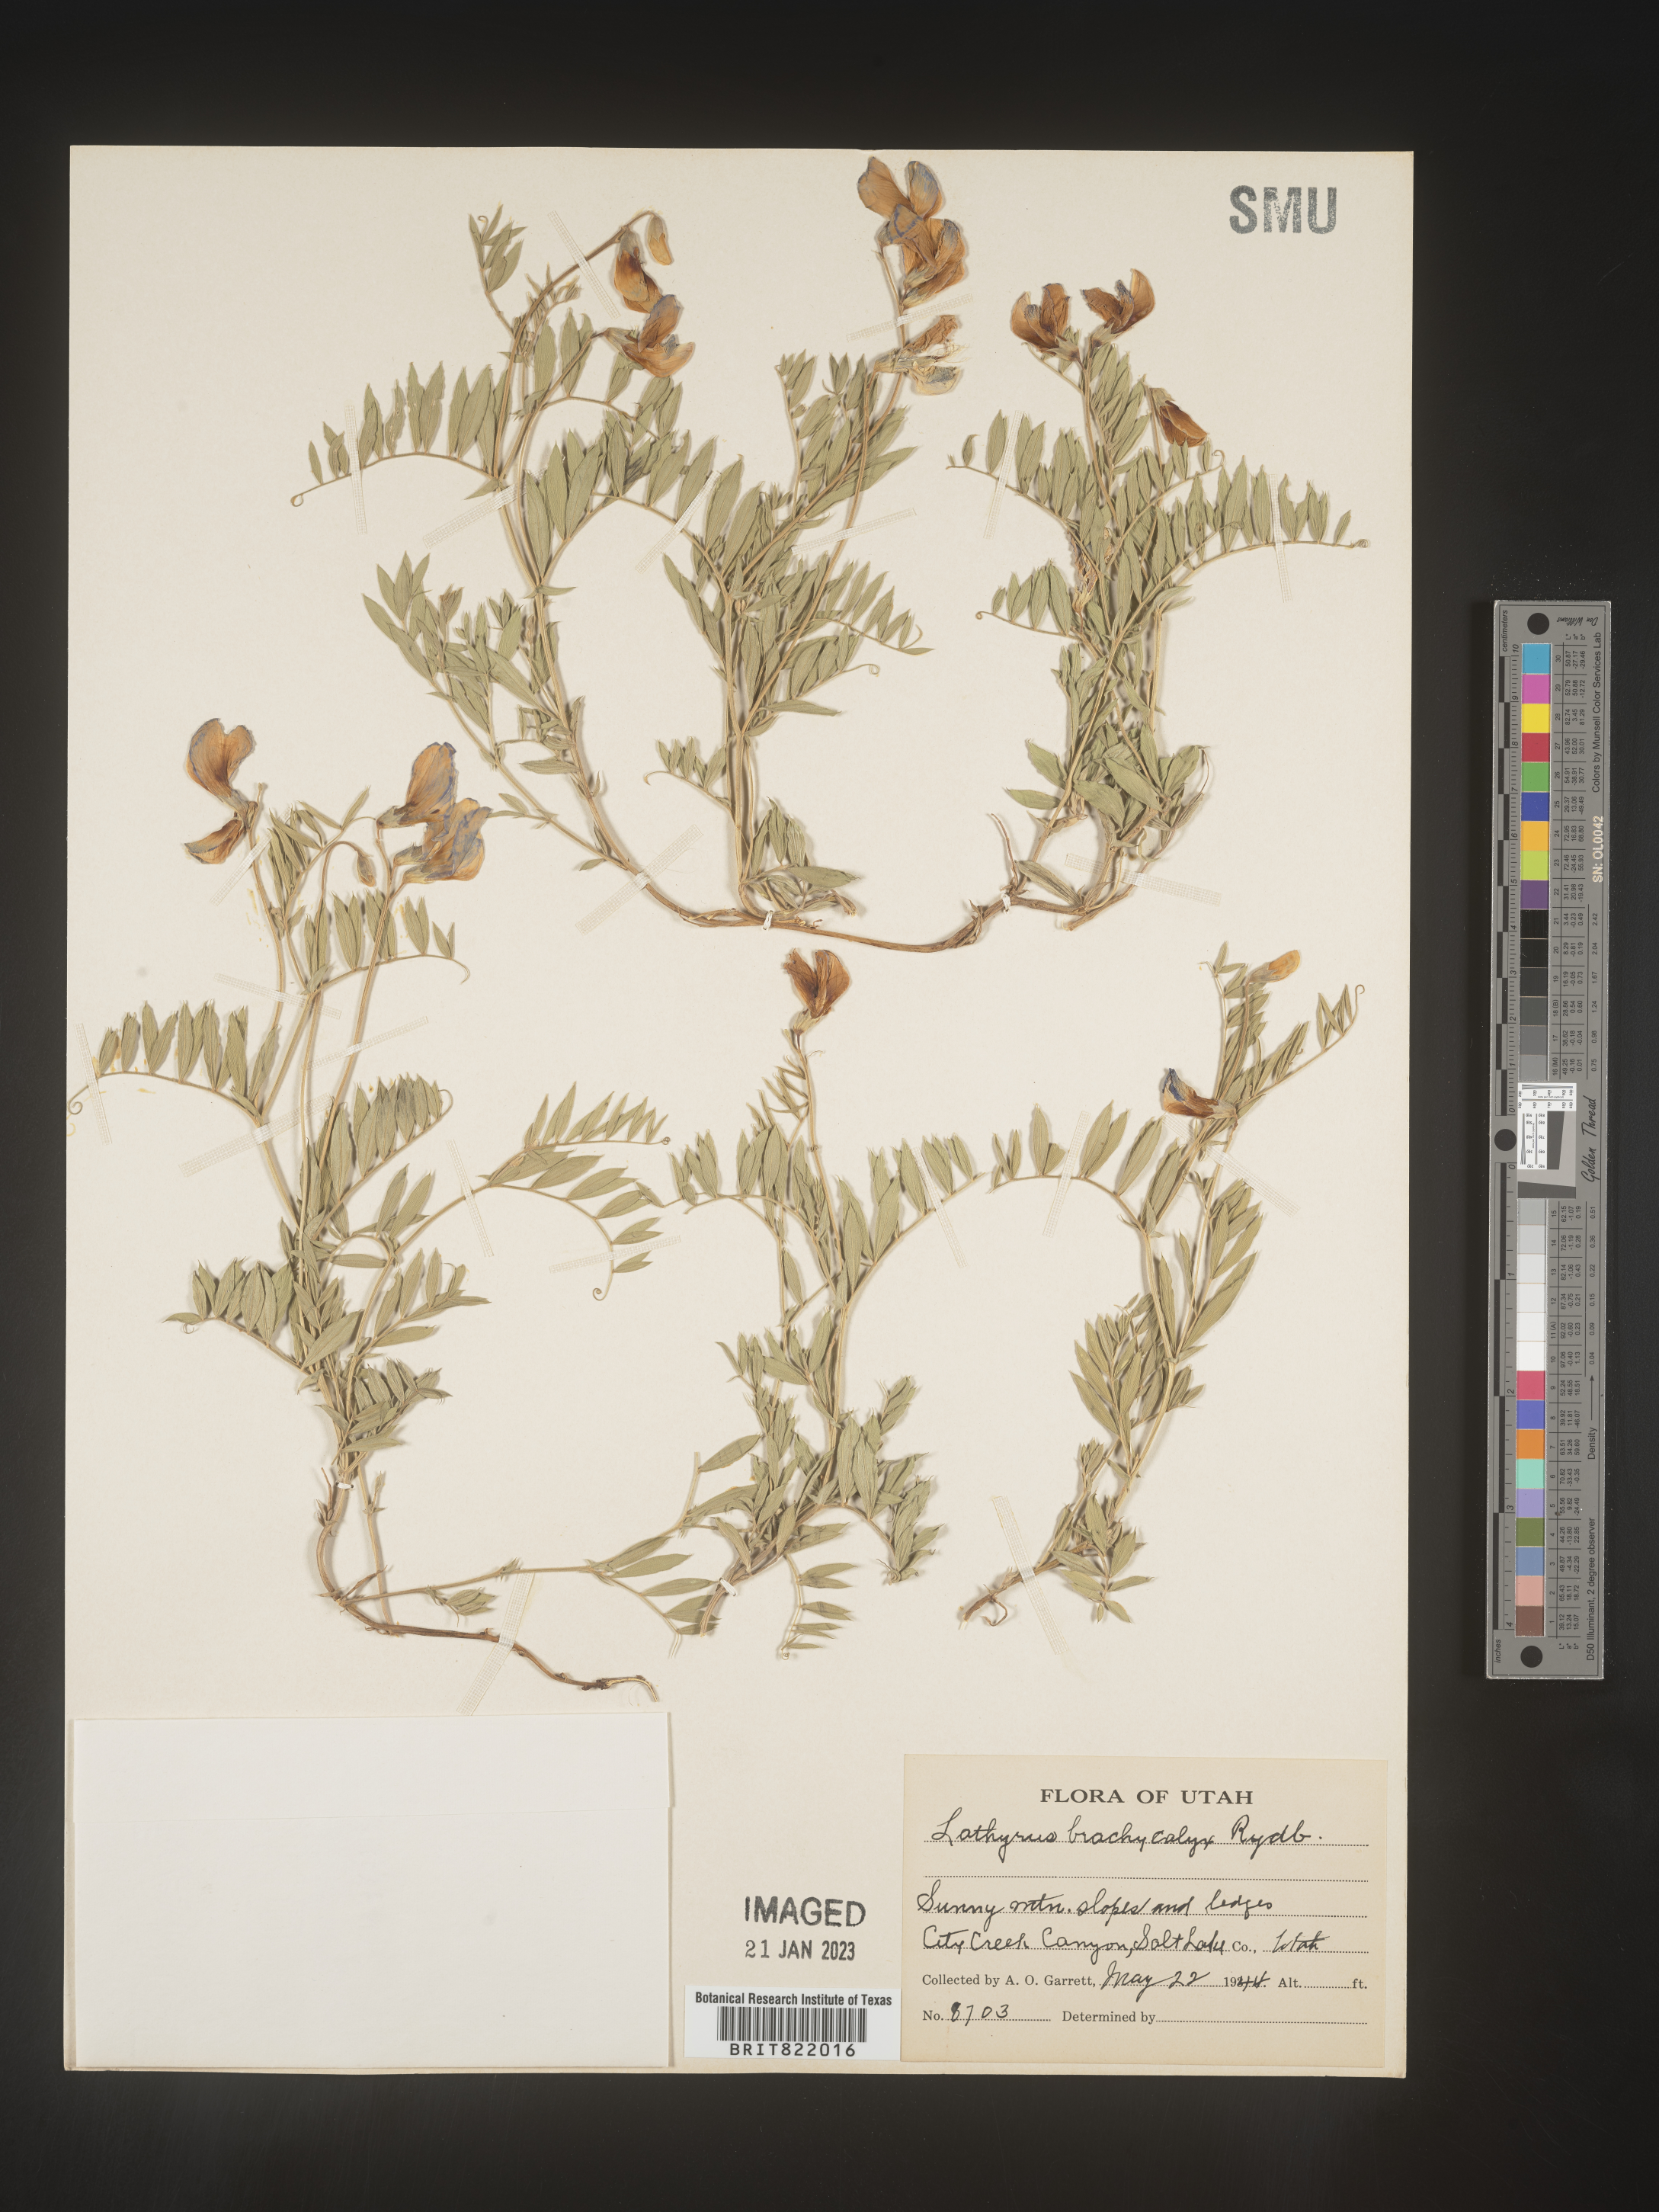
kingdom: Plantae
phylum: Tracheophyta
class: Magnoliopsida
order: Fabales
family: Fabaceae
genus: Lathyrus
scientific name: Lathyrus
